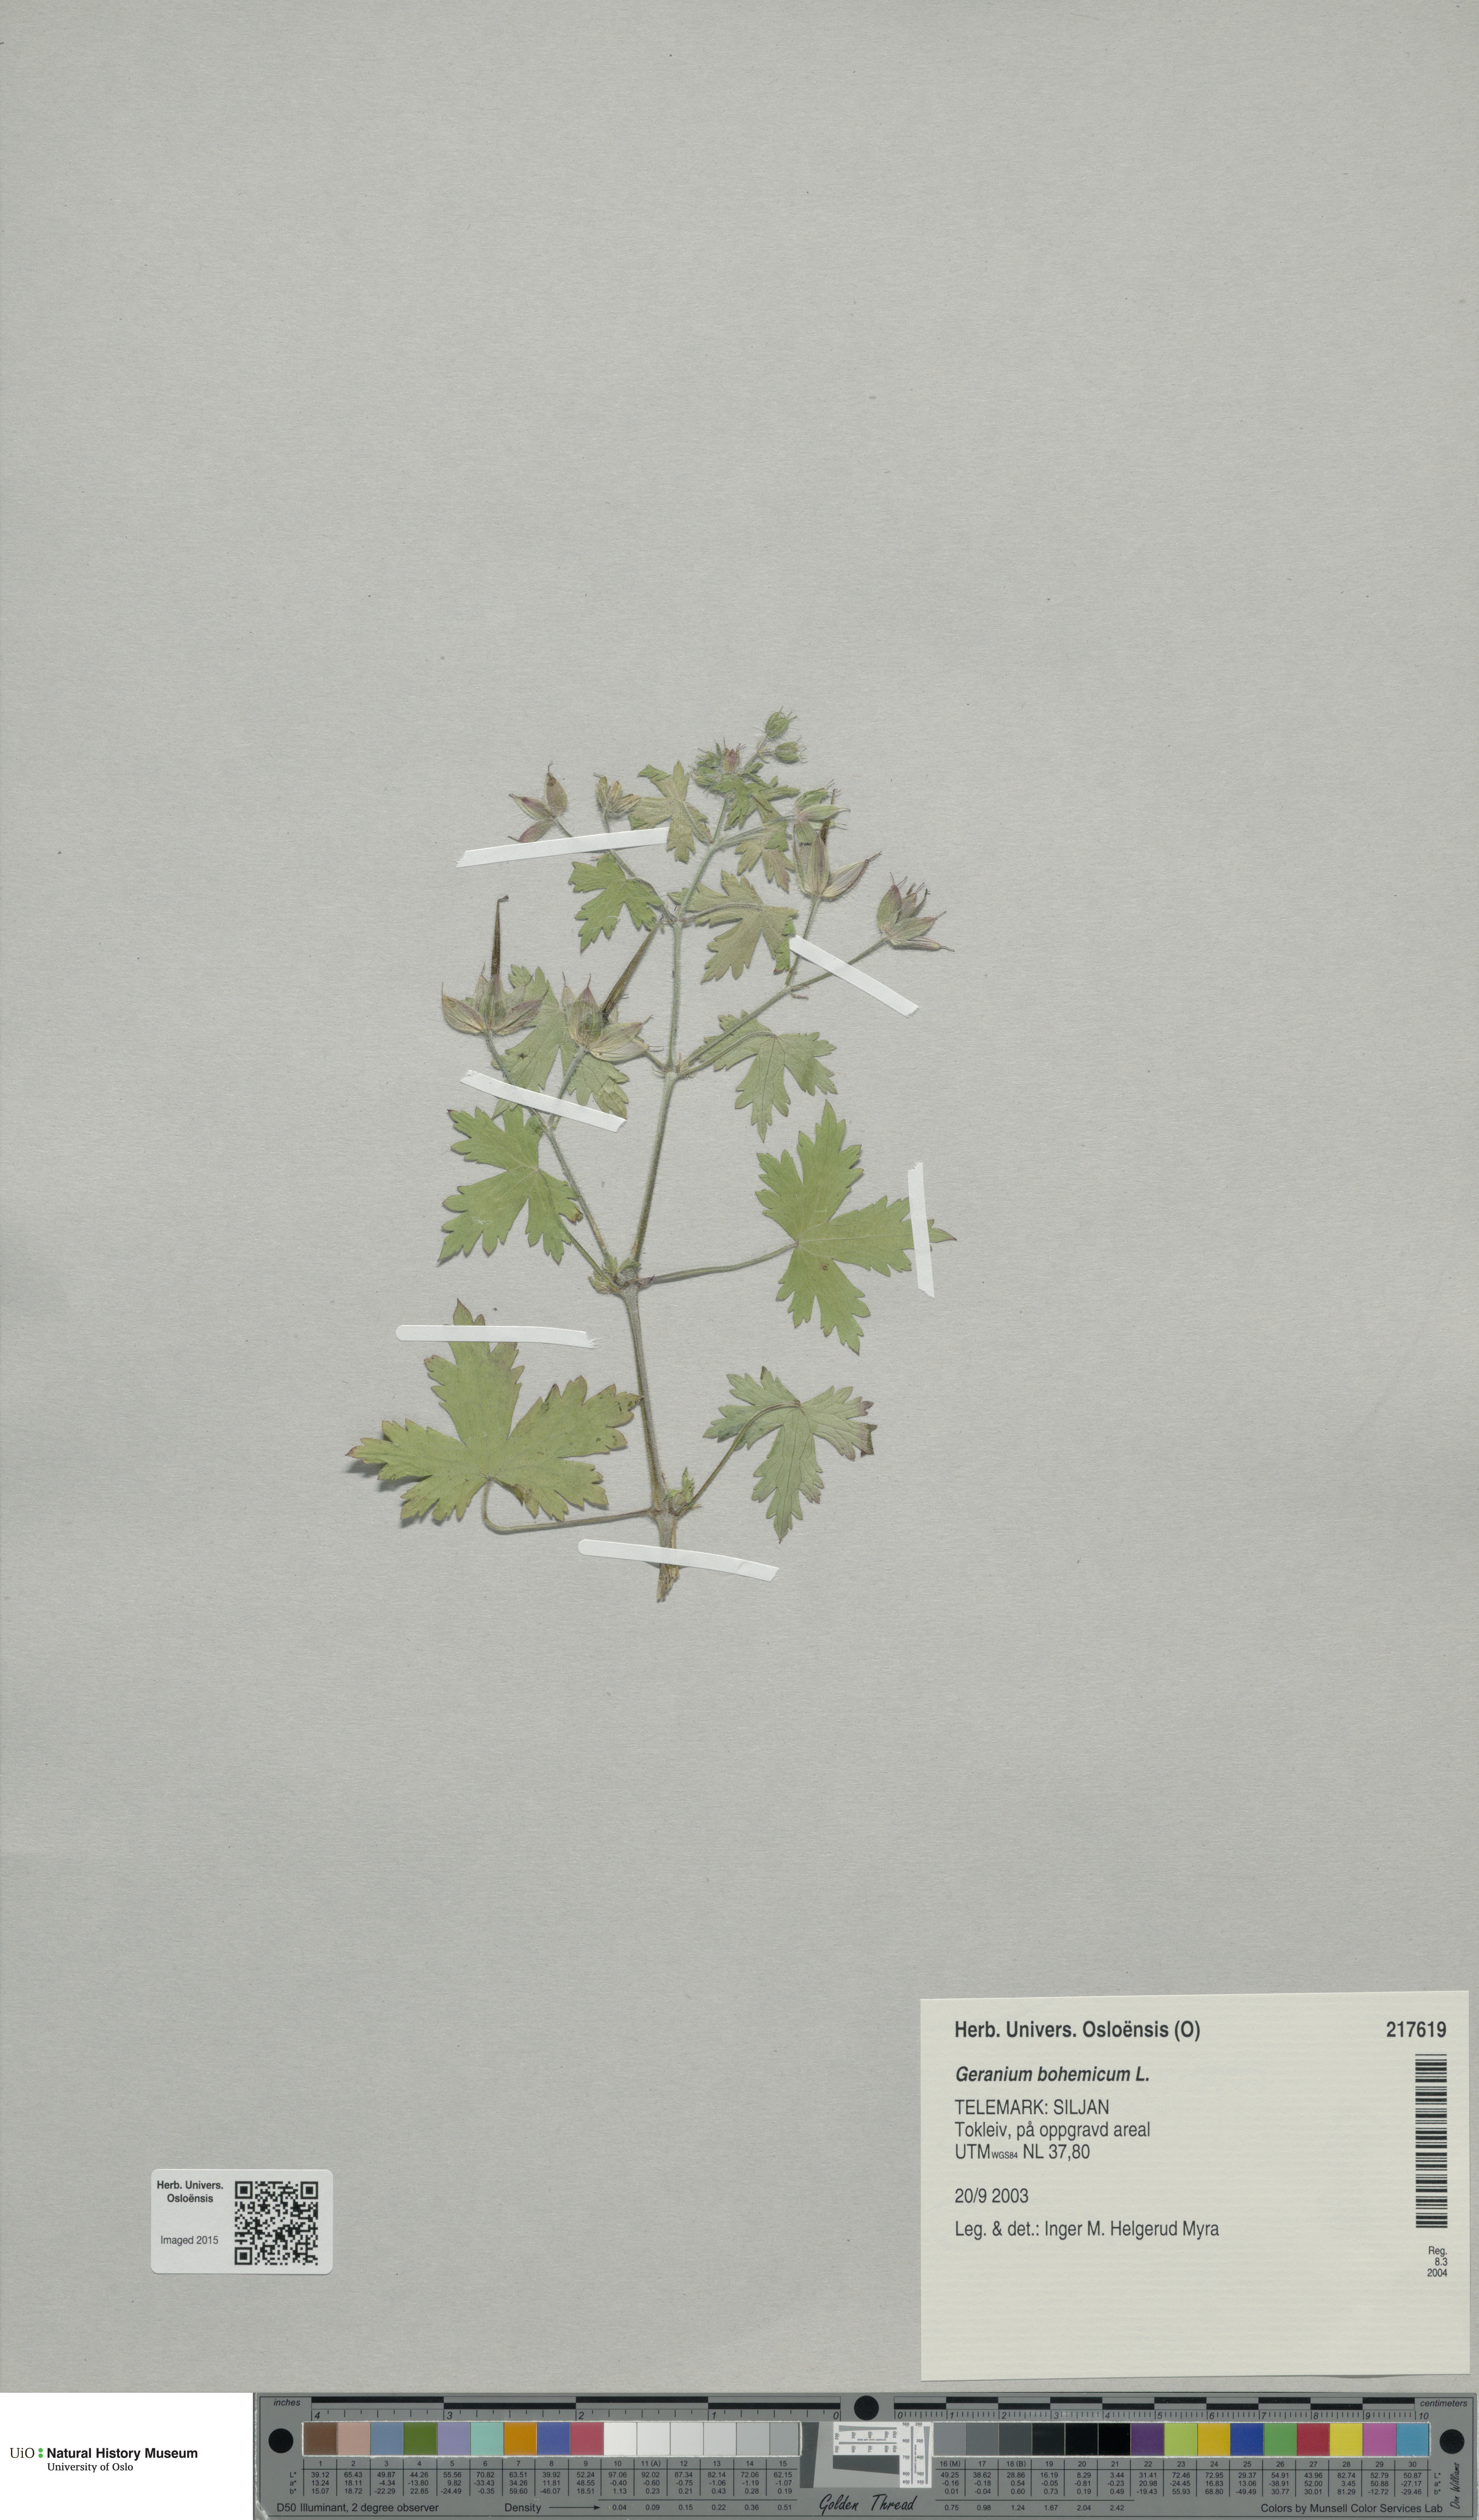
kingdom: Plantae
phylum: Tracheophyta
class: Magnoliopsida
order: Geraniales
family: Geraniaceae
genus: Geranium
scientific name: Geranium bohemicum
